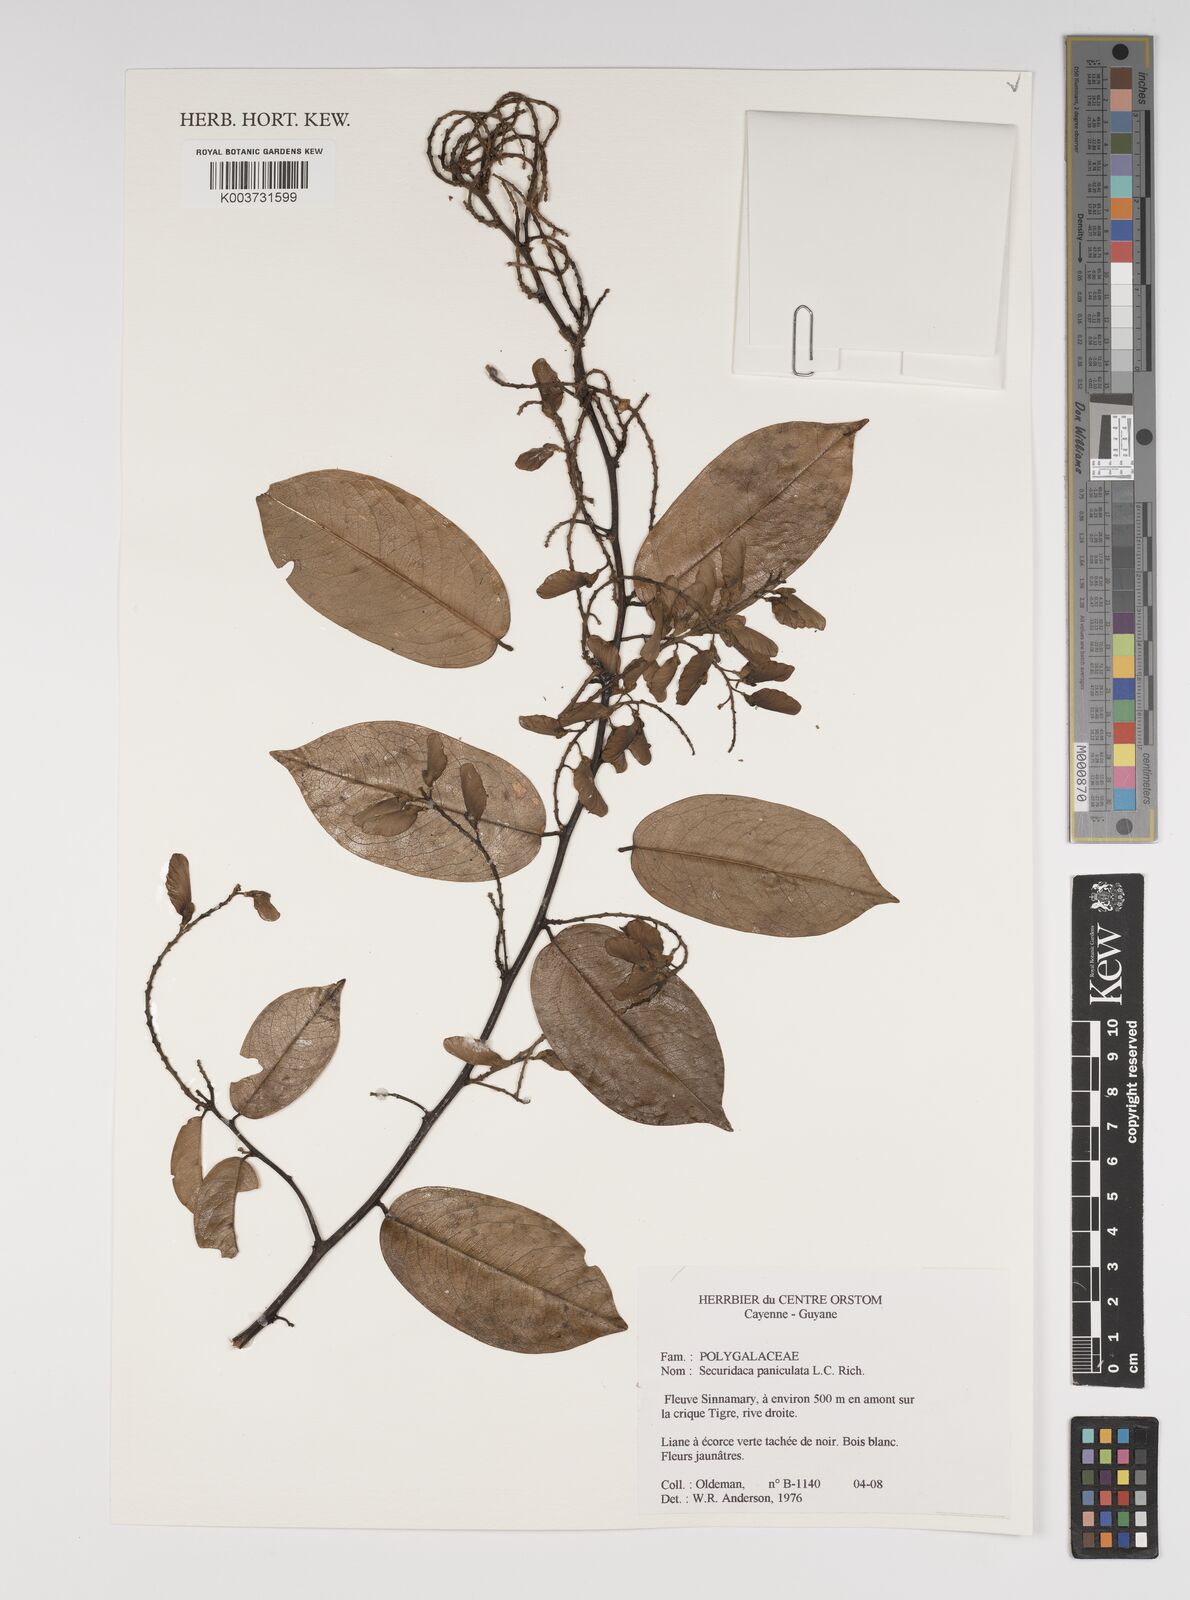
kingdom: Plantae
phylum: Tracheophyta
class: Magnoliopsida
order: Fabales
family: Polygalaceae
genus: Securidaca
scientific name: Securidaca paniculata
